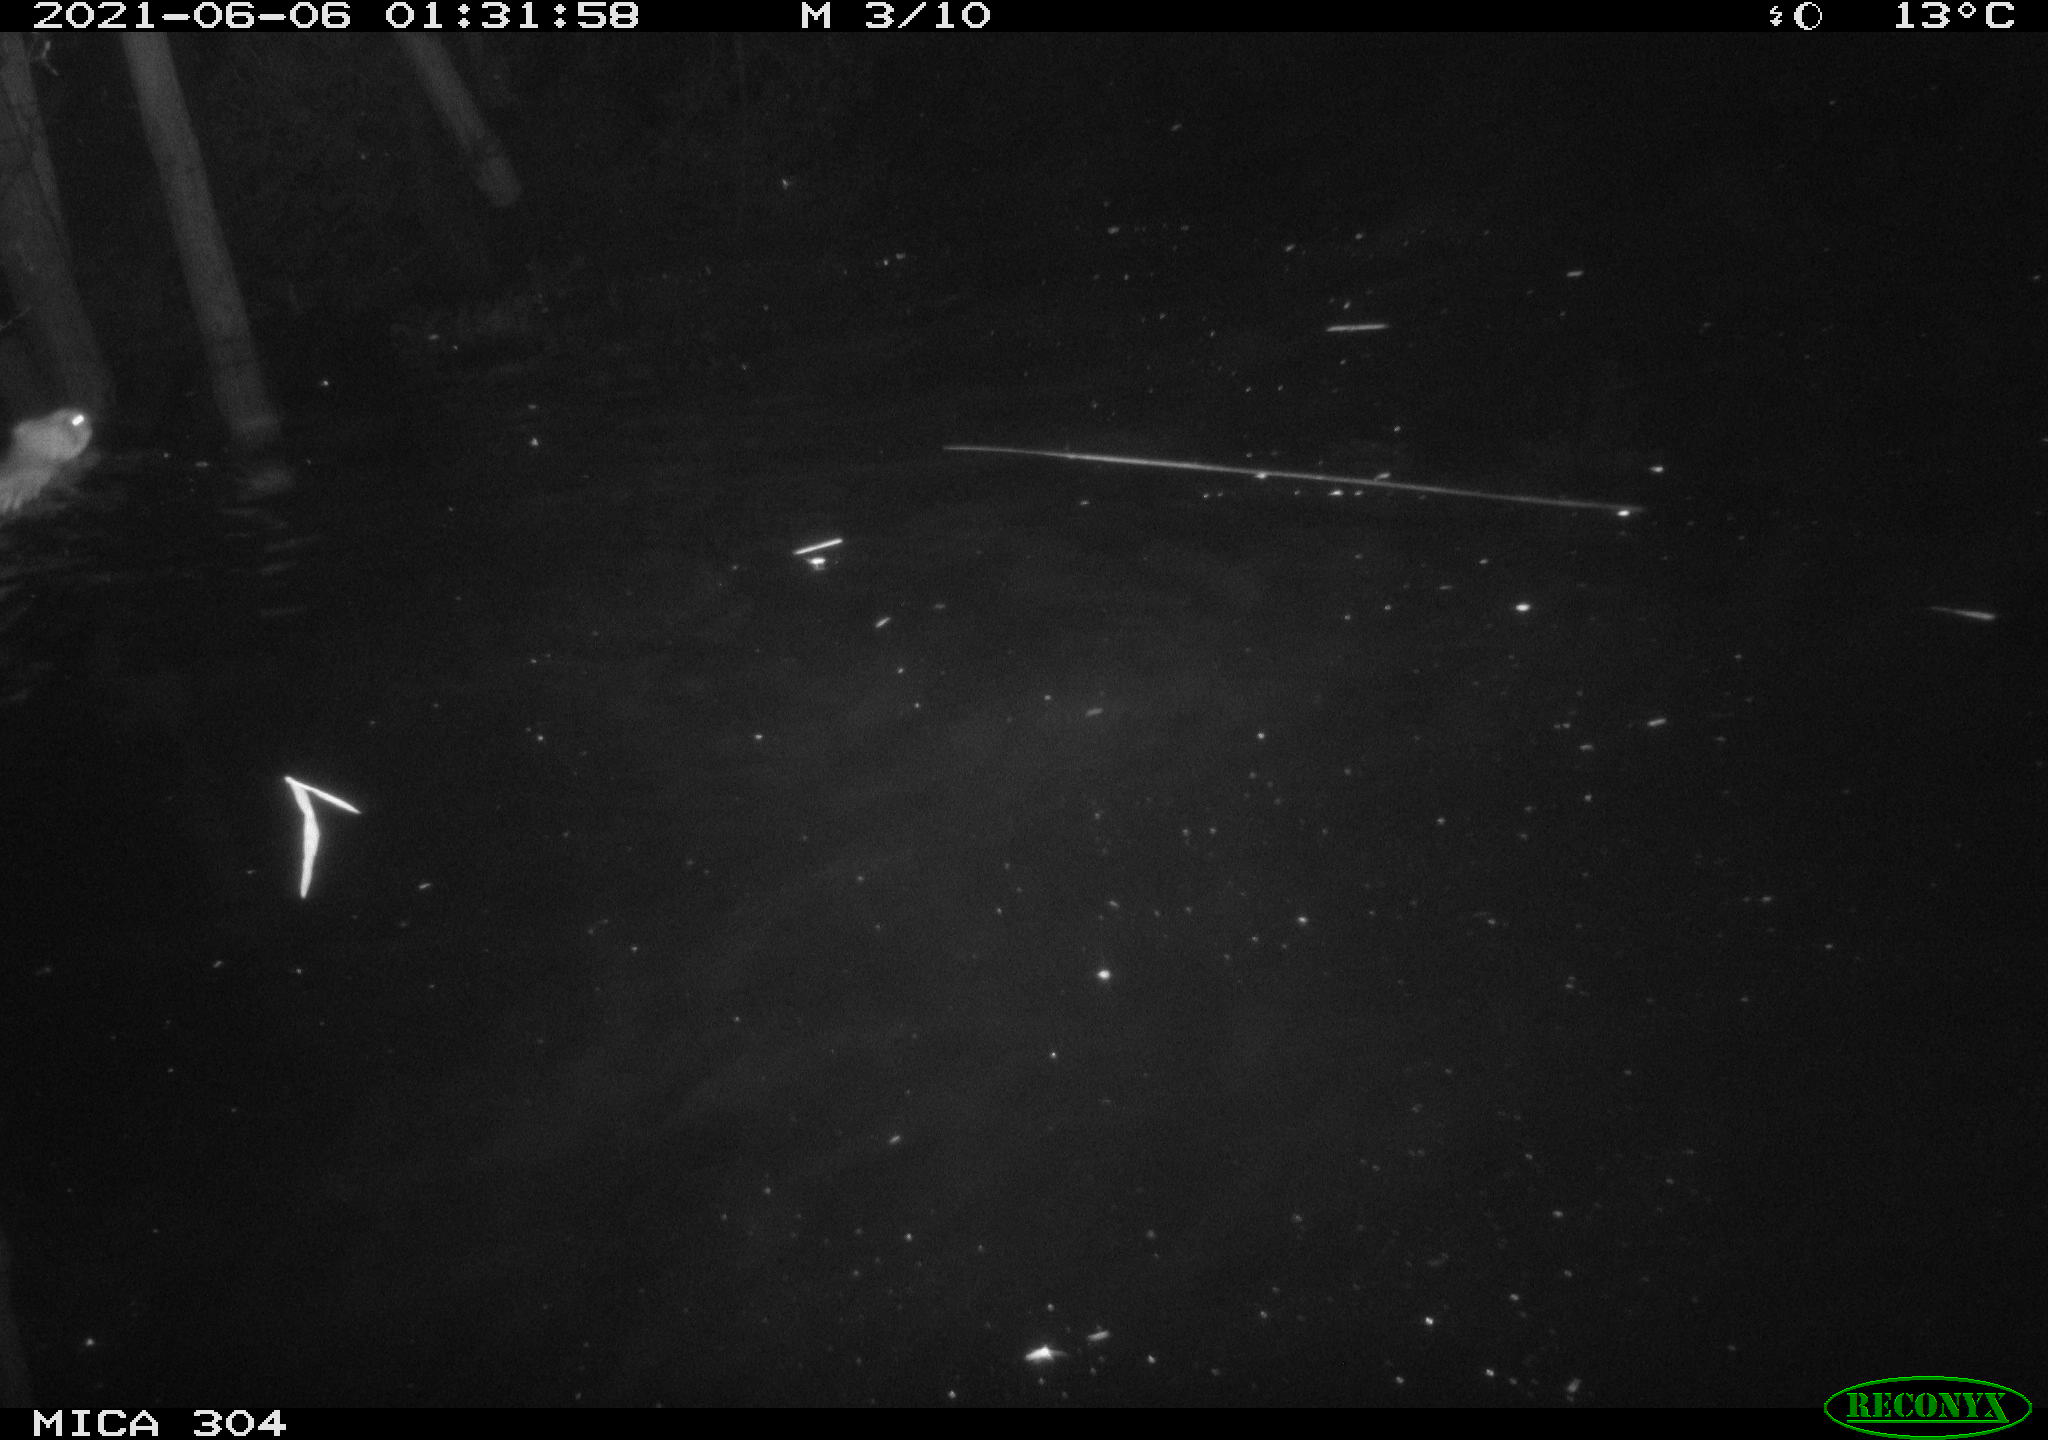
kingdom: Animalia
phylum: Chordata
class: Mammalia
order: Rodentia
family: Cricetidae
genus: Ondatra
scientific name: Ondatra zibethicus
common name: Muskrat
